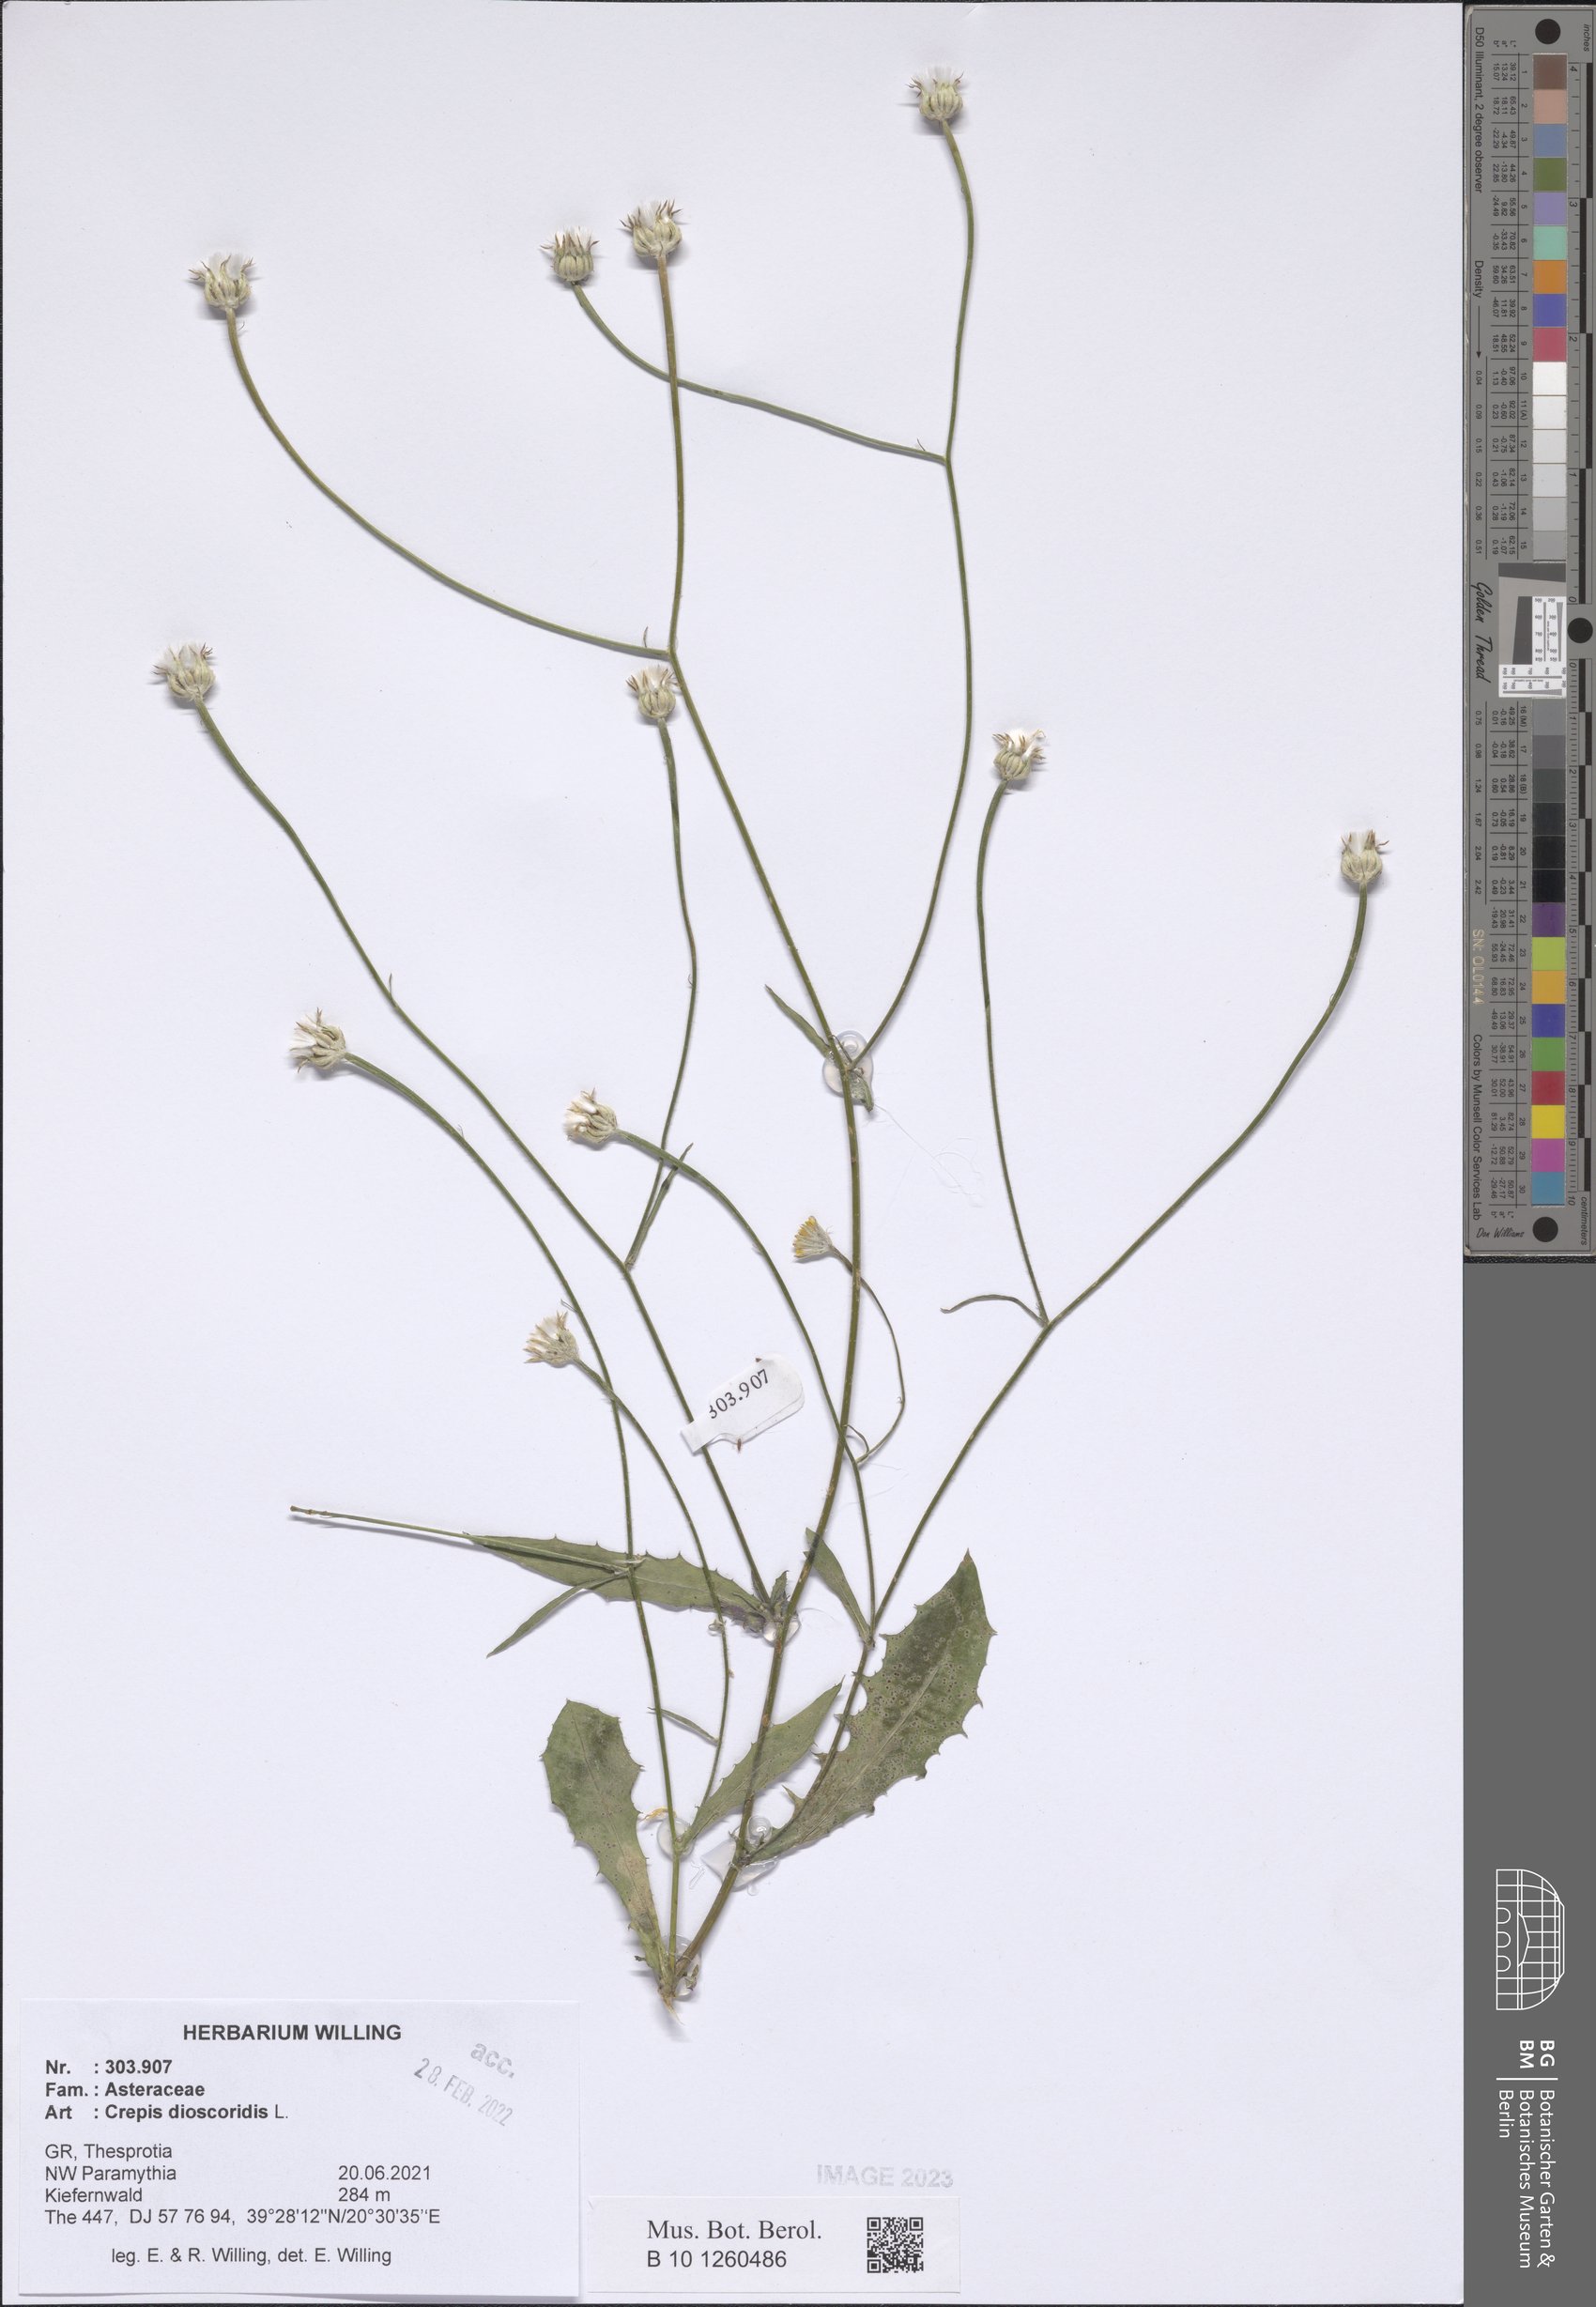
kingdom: Plantae
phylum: Tracheophyta
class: Magnoliopsida
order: Asterales
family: Asteraceae
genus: Crepis
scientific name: Crepis dioscoridis
